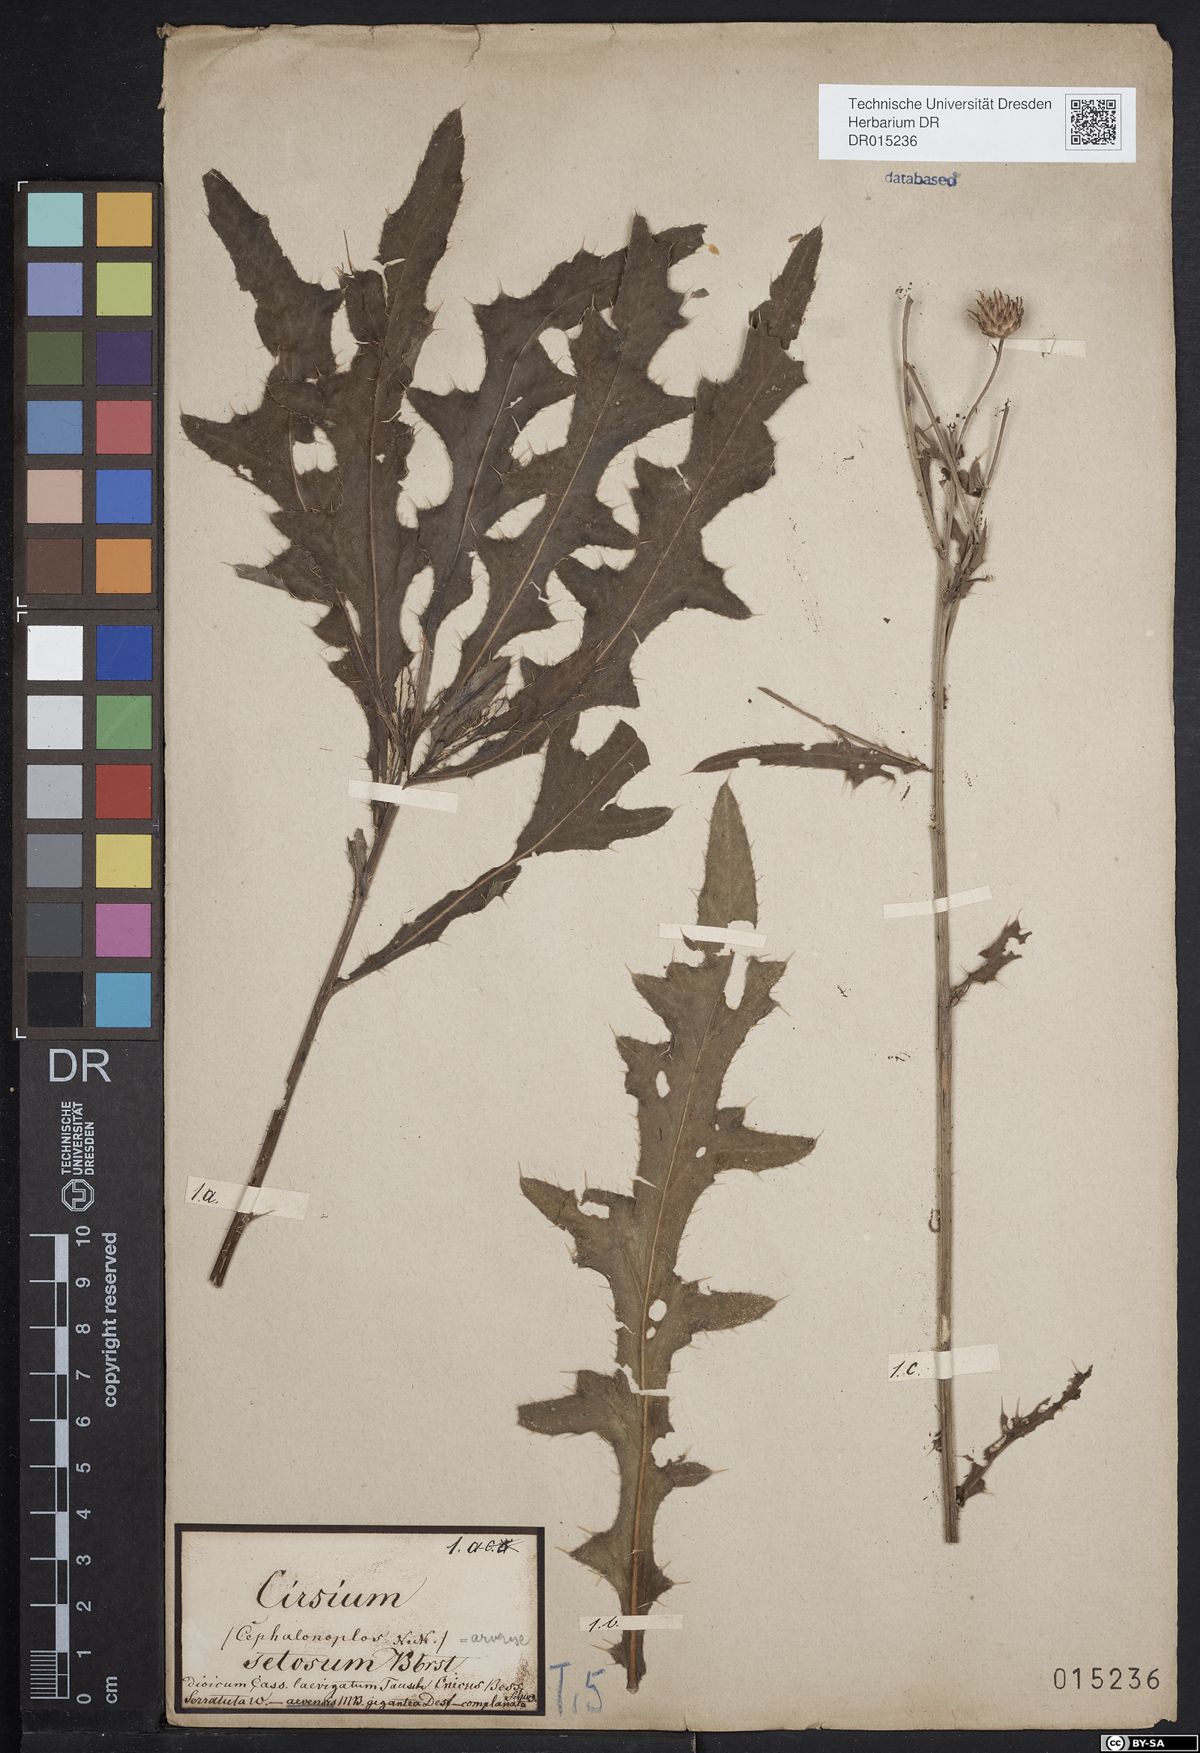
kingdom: Plantae
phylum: Tracheophyta
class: Magnoliopsida
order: Asterales
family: Asteraceae
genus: Cirsium
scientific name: Cirsium arvense
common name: Creeping thistle
